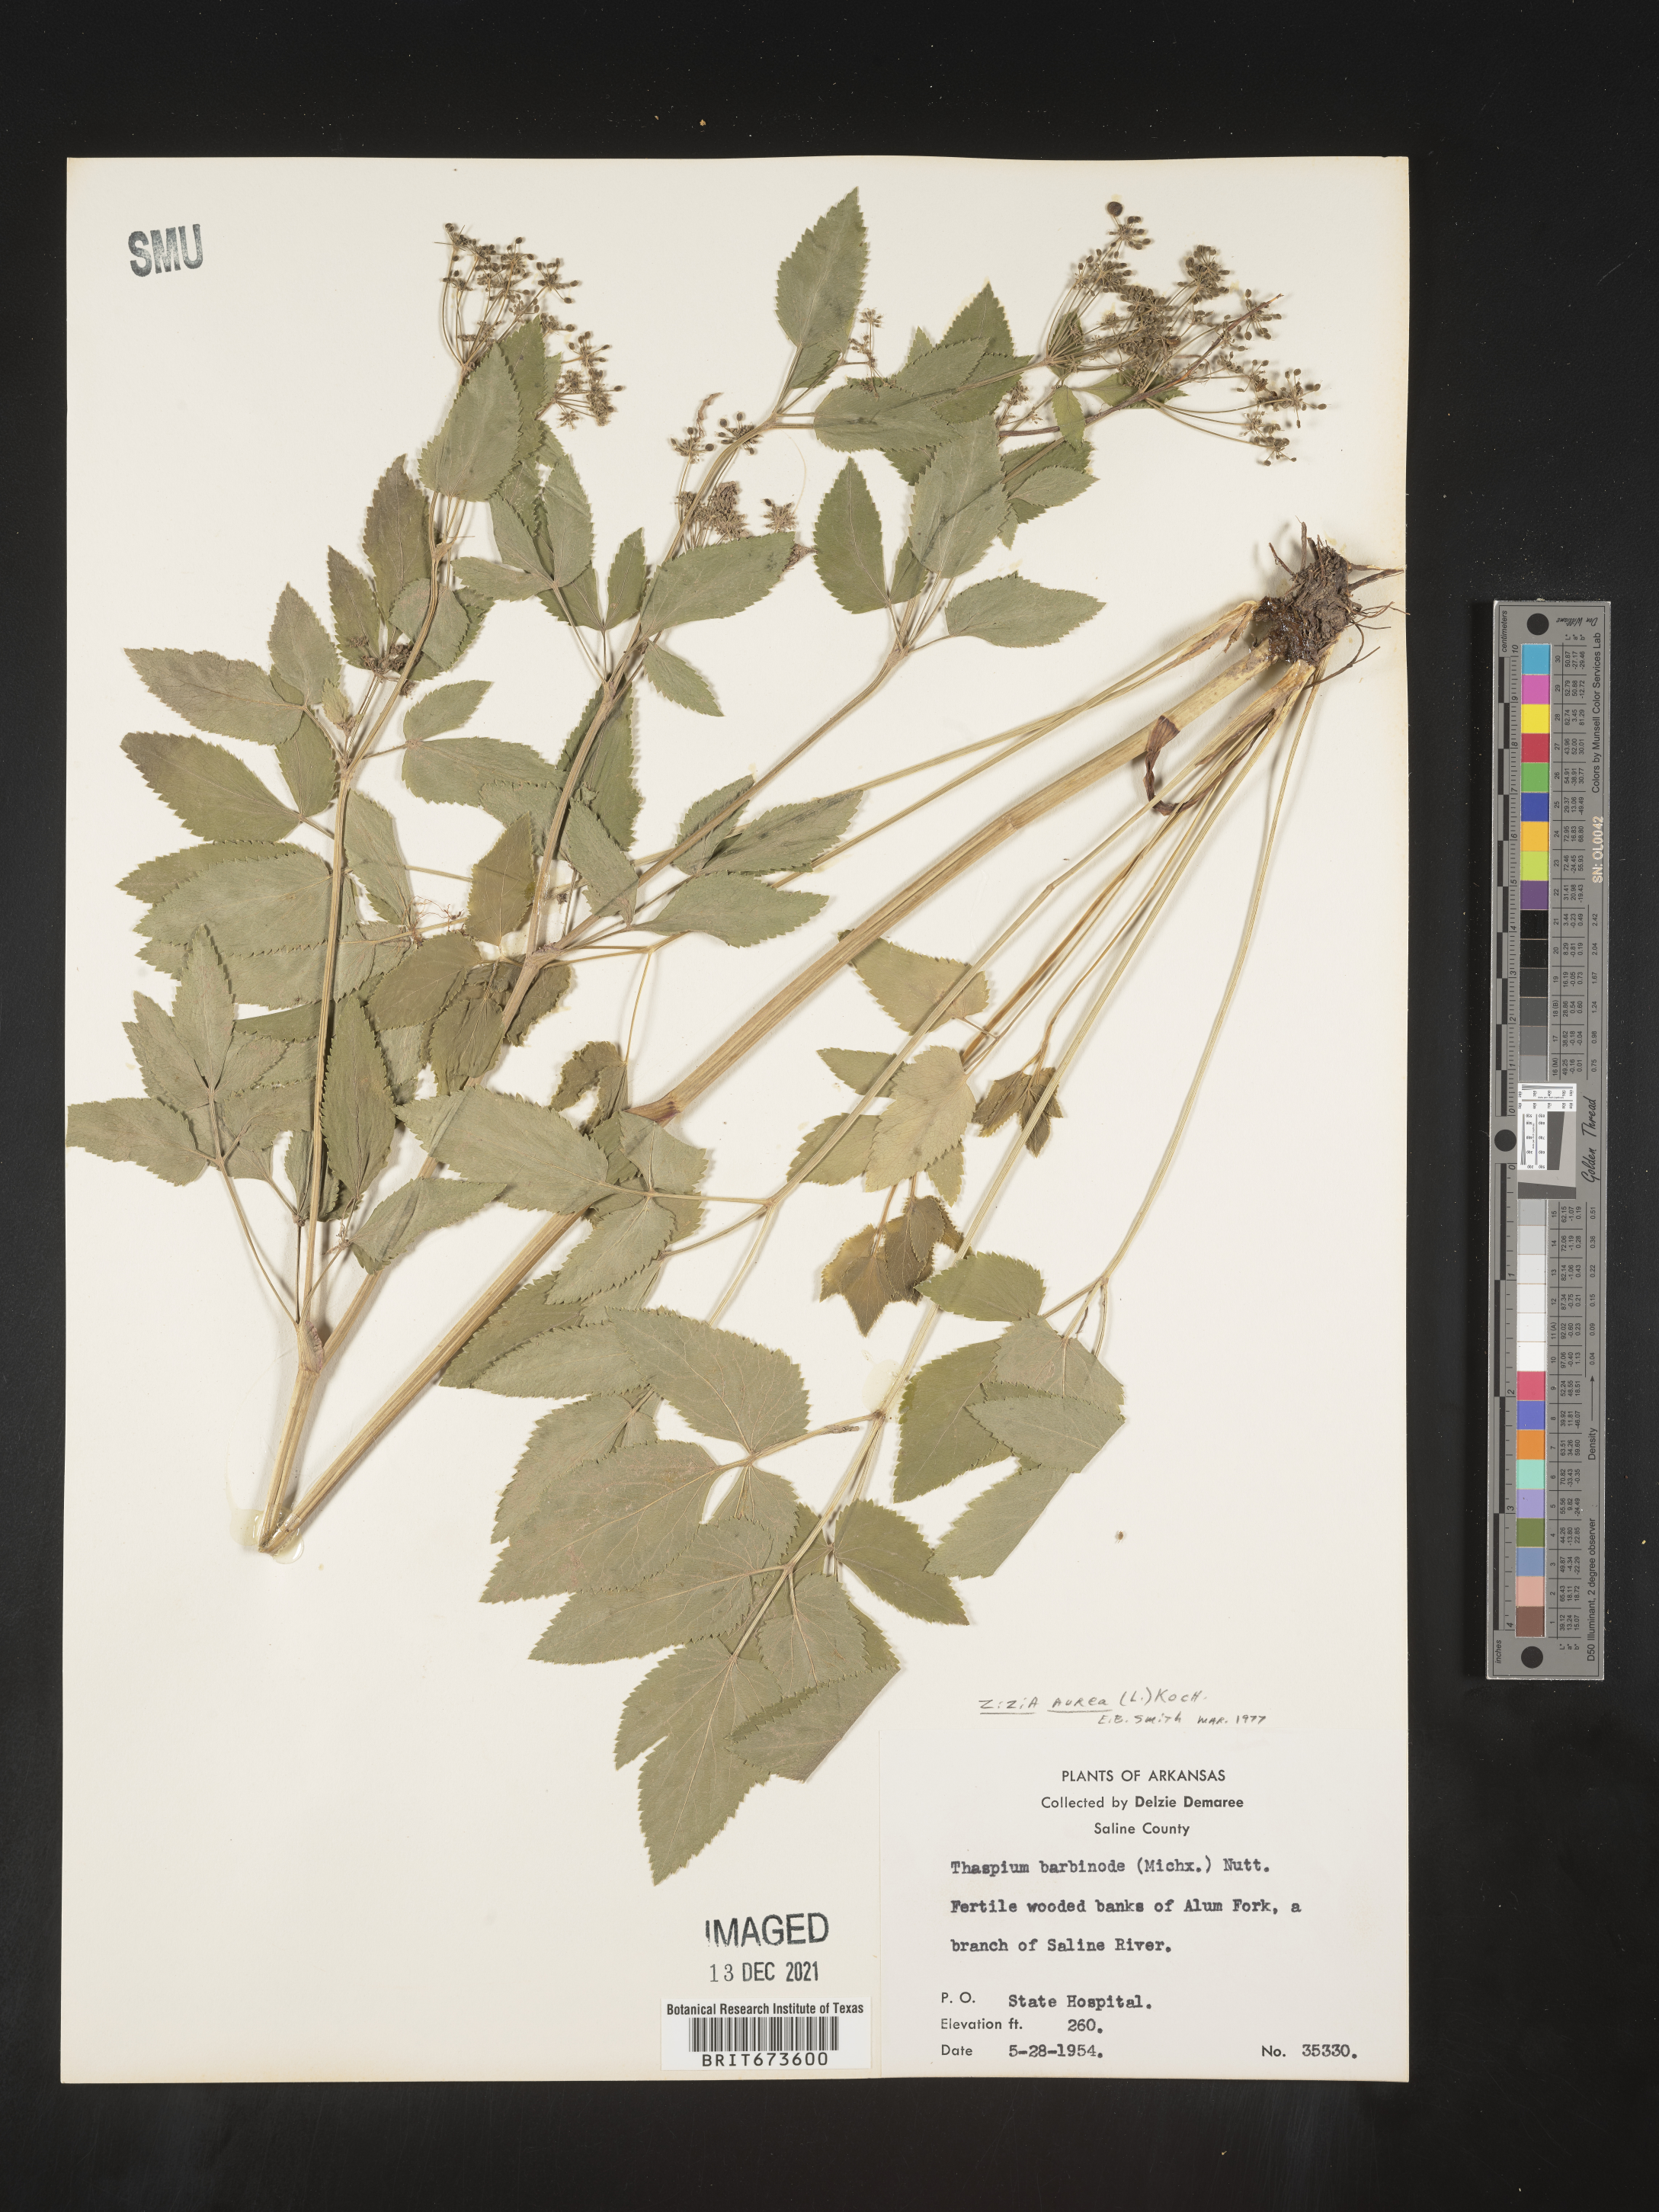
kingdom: Plantae
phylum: Tracheophyta
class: Magnoliopsida
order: Apiales
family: Apiaceae
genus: Zizia
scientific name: Zizia aurea
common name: Golden alexanders
